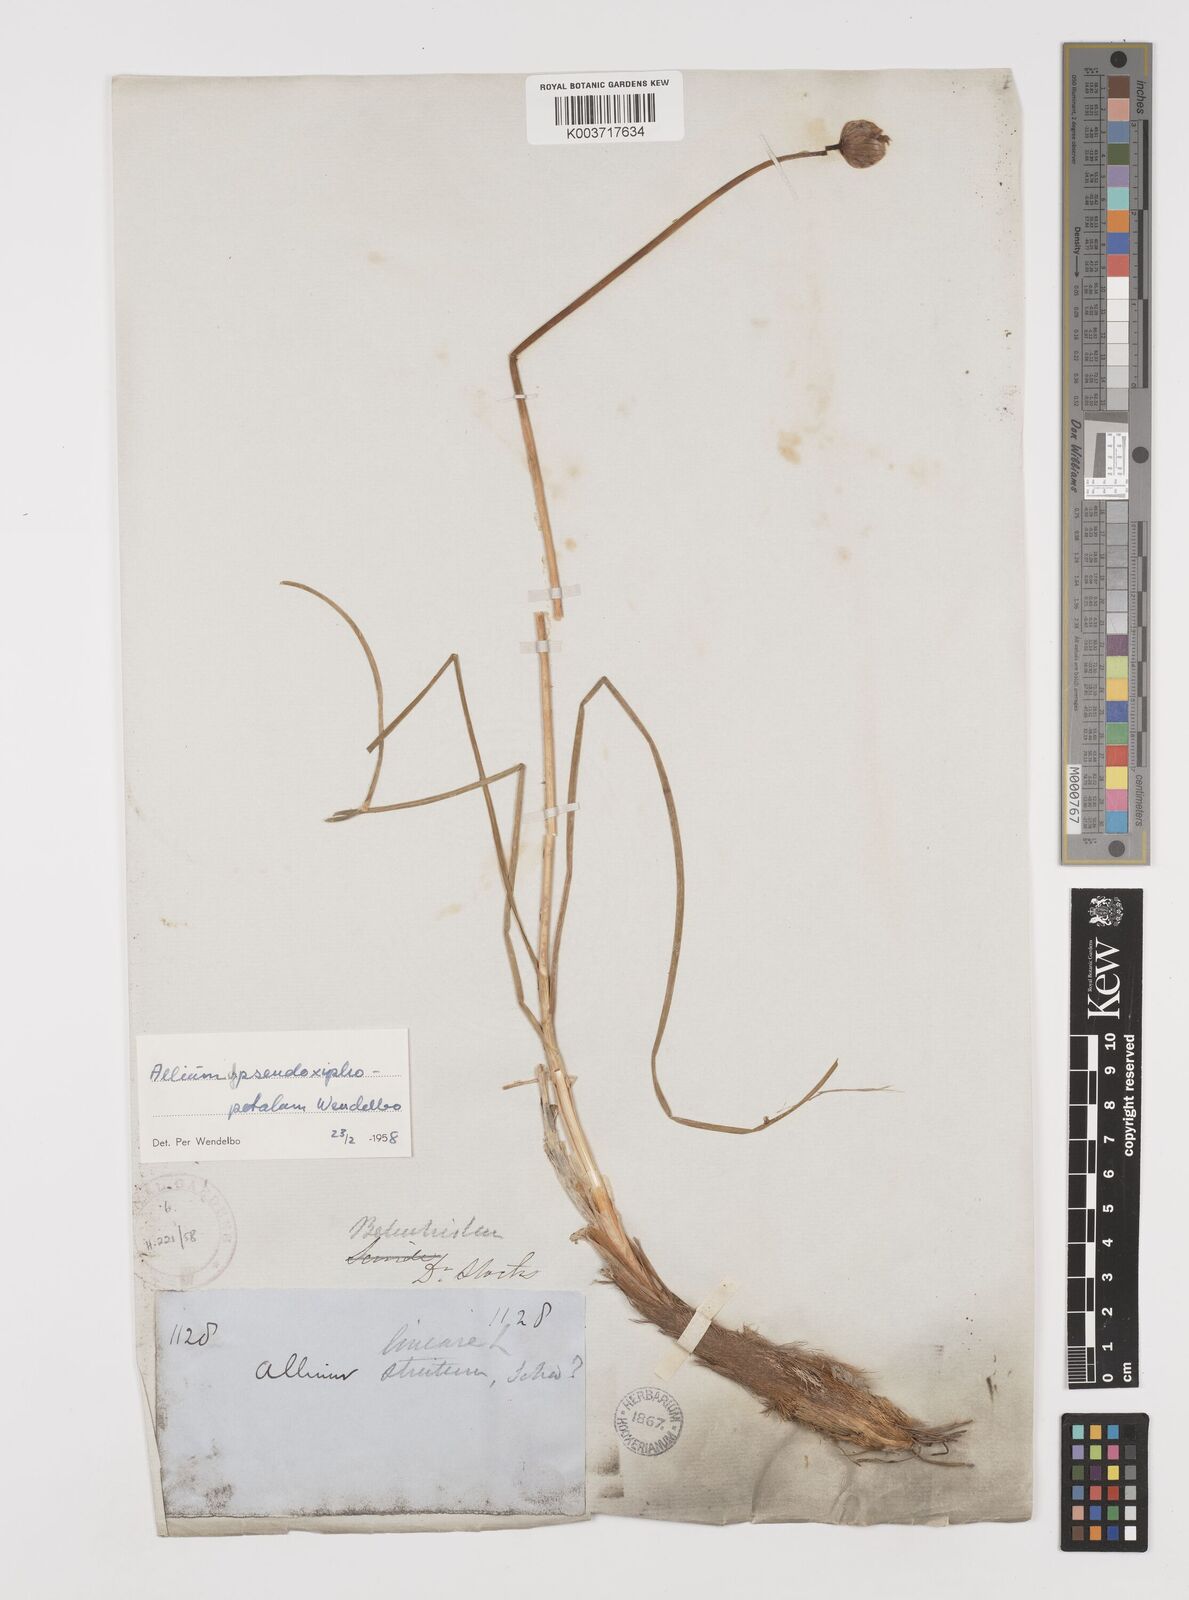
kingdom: Plantae
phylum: Tracheophyta
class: Liliopsida
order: Asparagales
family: Amaryllidaceae
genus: Allium
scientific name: Allium dolichostylum
